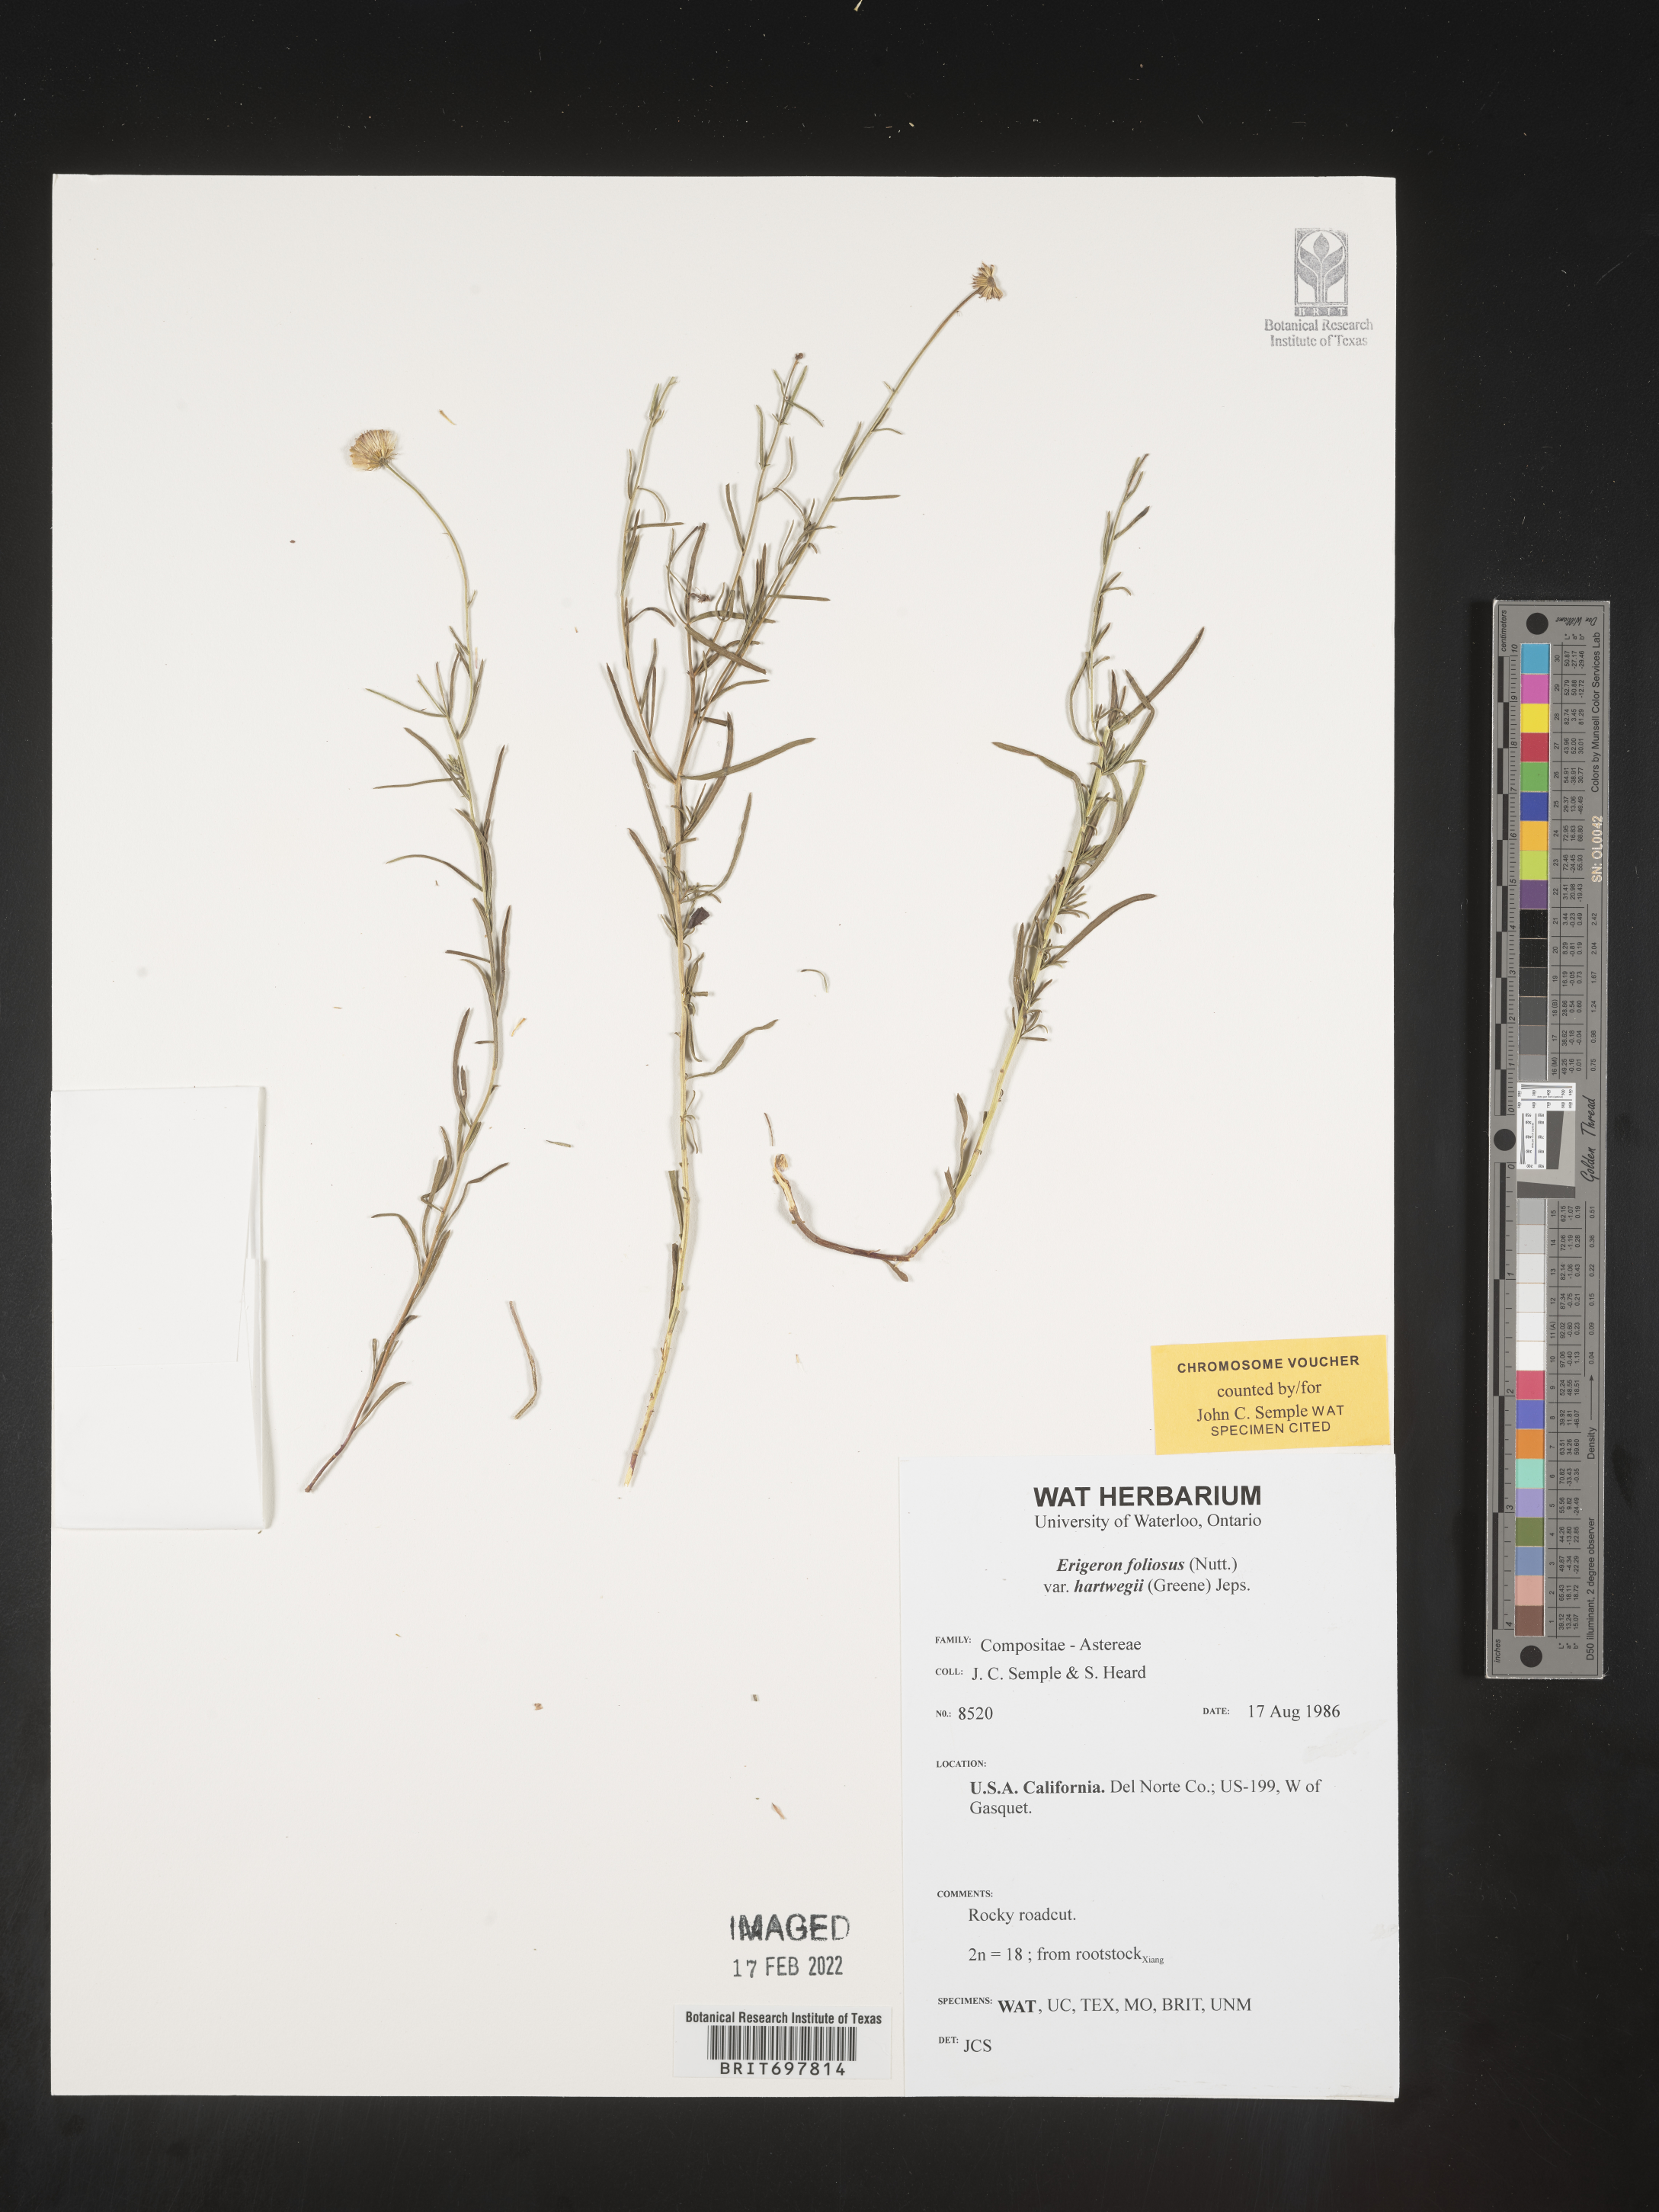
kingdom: Plantae
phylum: Tracheophyta
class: Magnoliopsida
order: Asterales
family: Asteraceae
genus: Erigeron
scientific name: Erigeron foliosus
